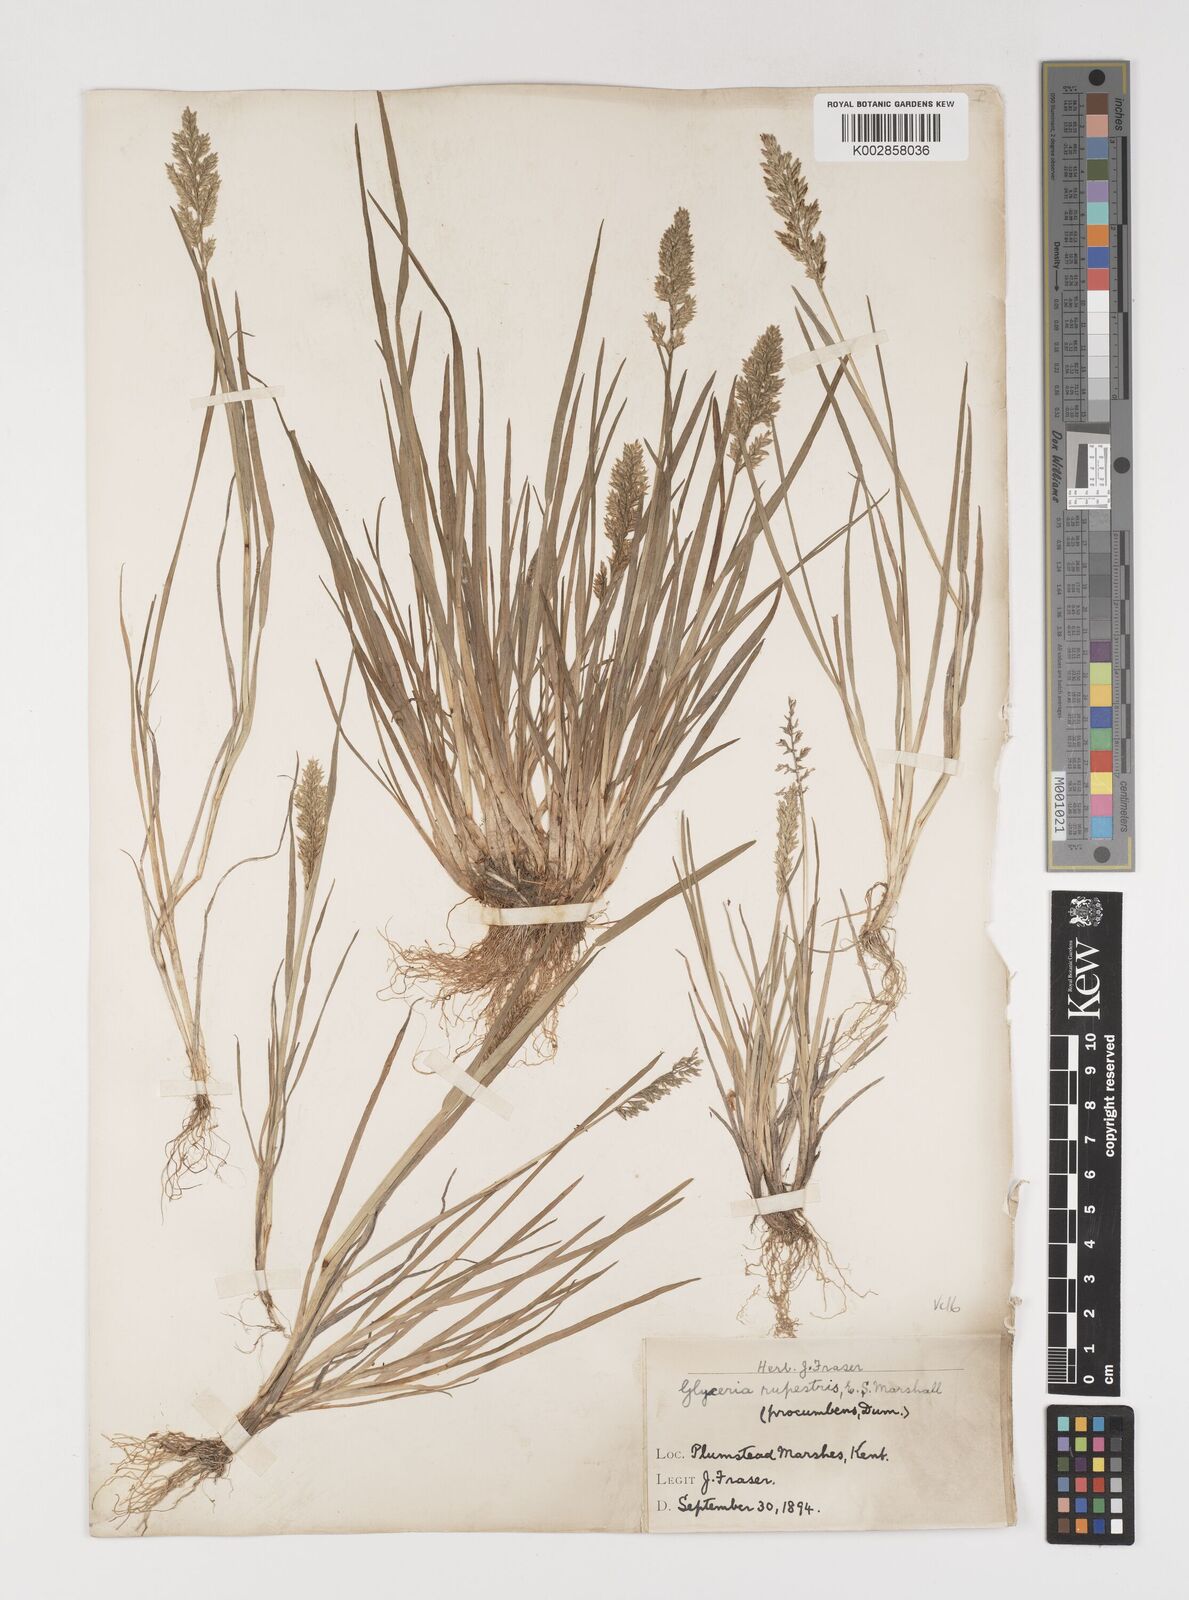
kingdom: Plantae
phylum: Tracheophyta
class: Liliopsida
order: Poales
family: Poaceae
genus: Puccinellia
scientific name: Puccinellia rupestris
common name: Stiff saltmarsh-grass
